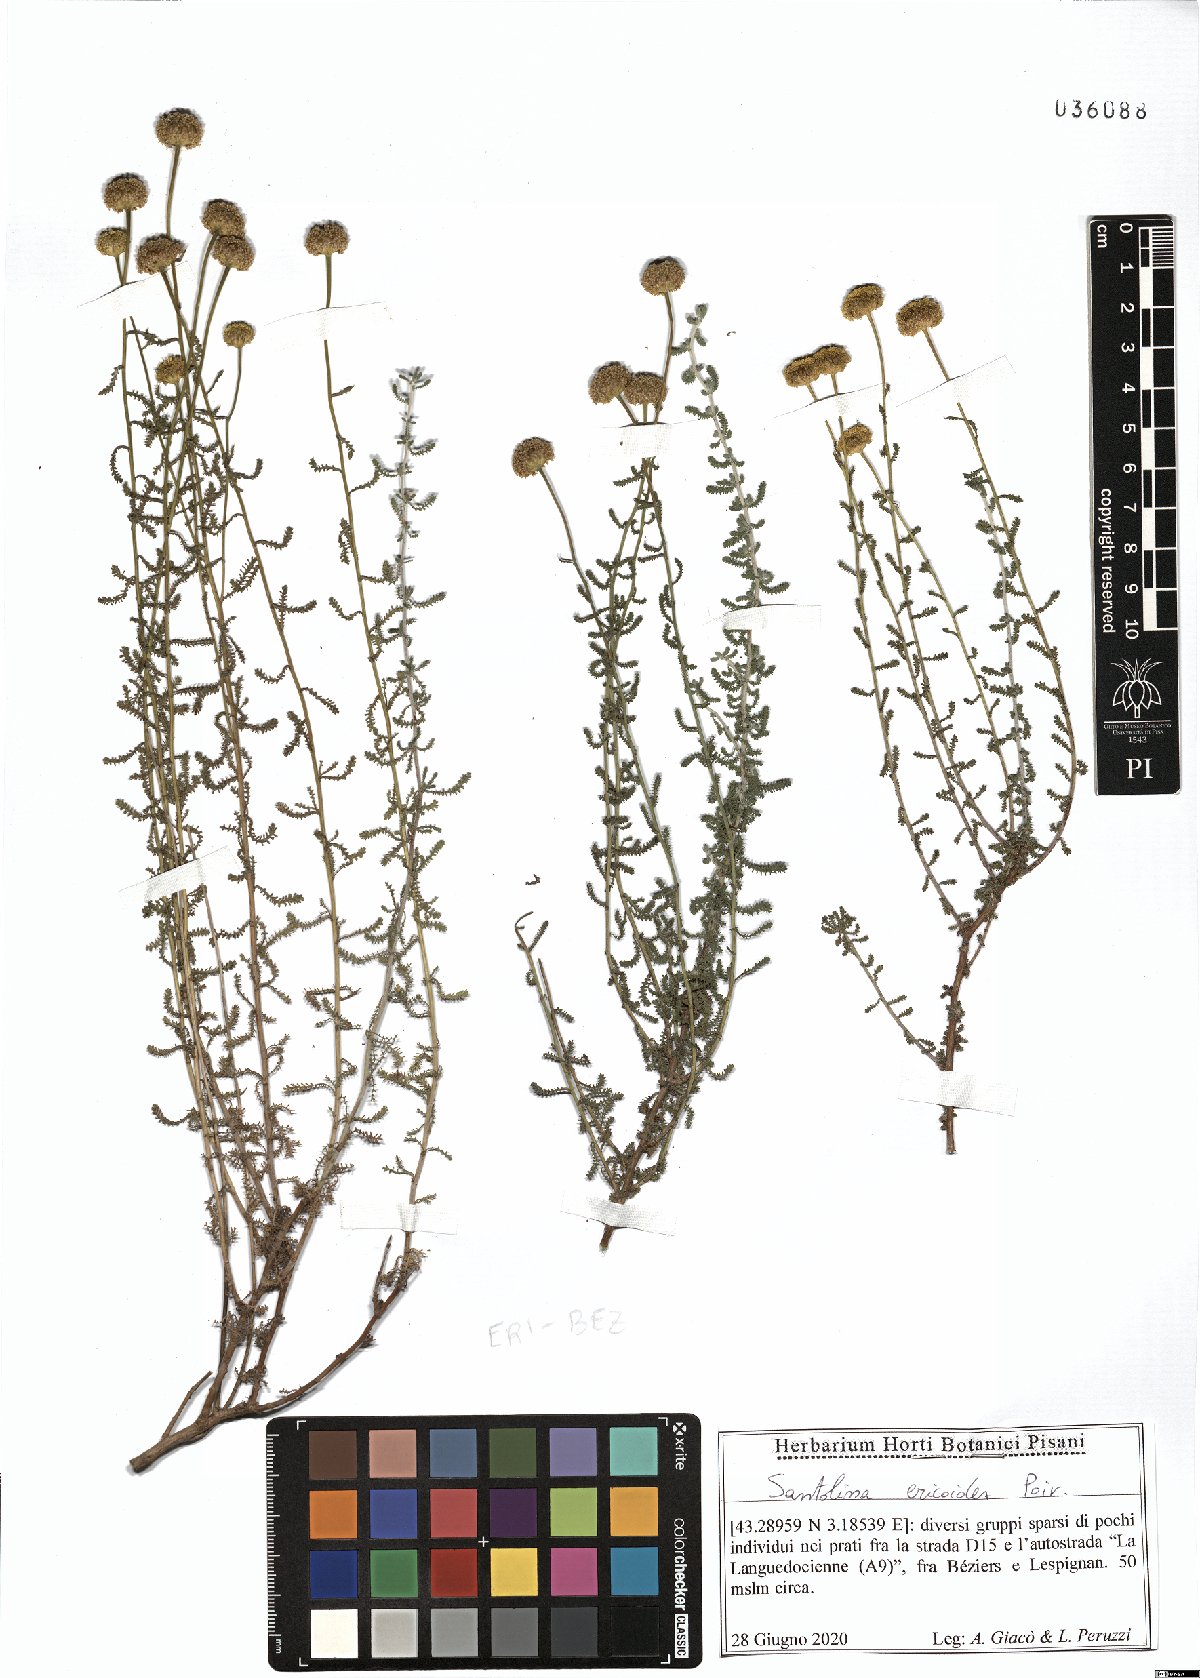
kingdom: Plantae
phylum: Tracheophyta
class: Magnoliopsida
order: Asterales
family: Asteraceae
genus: Santolina
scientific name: Santolina ericoides
